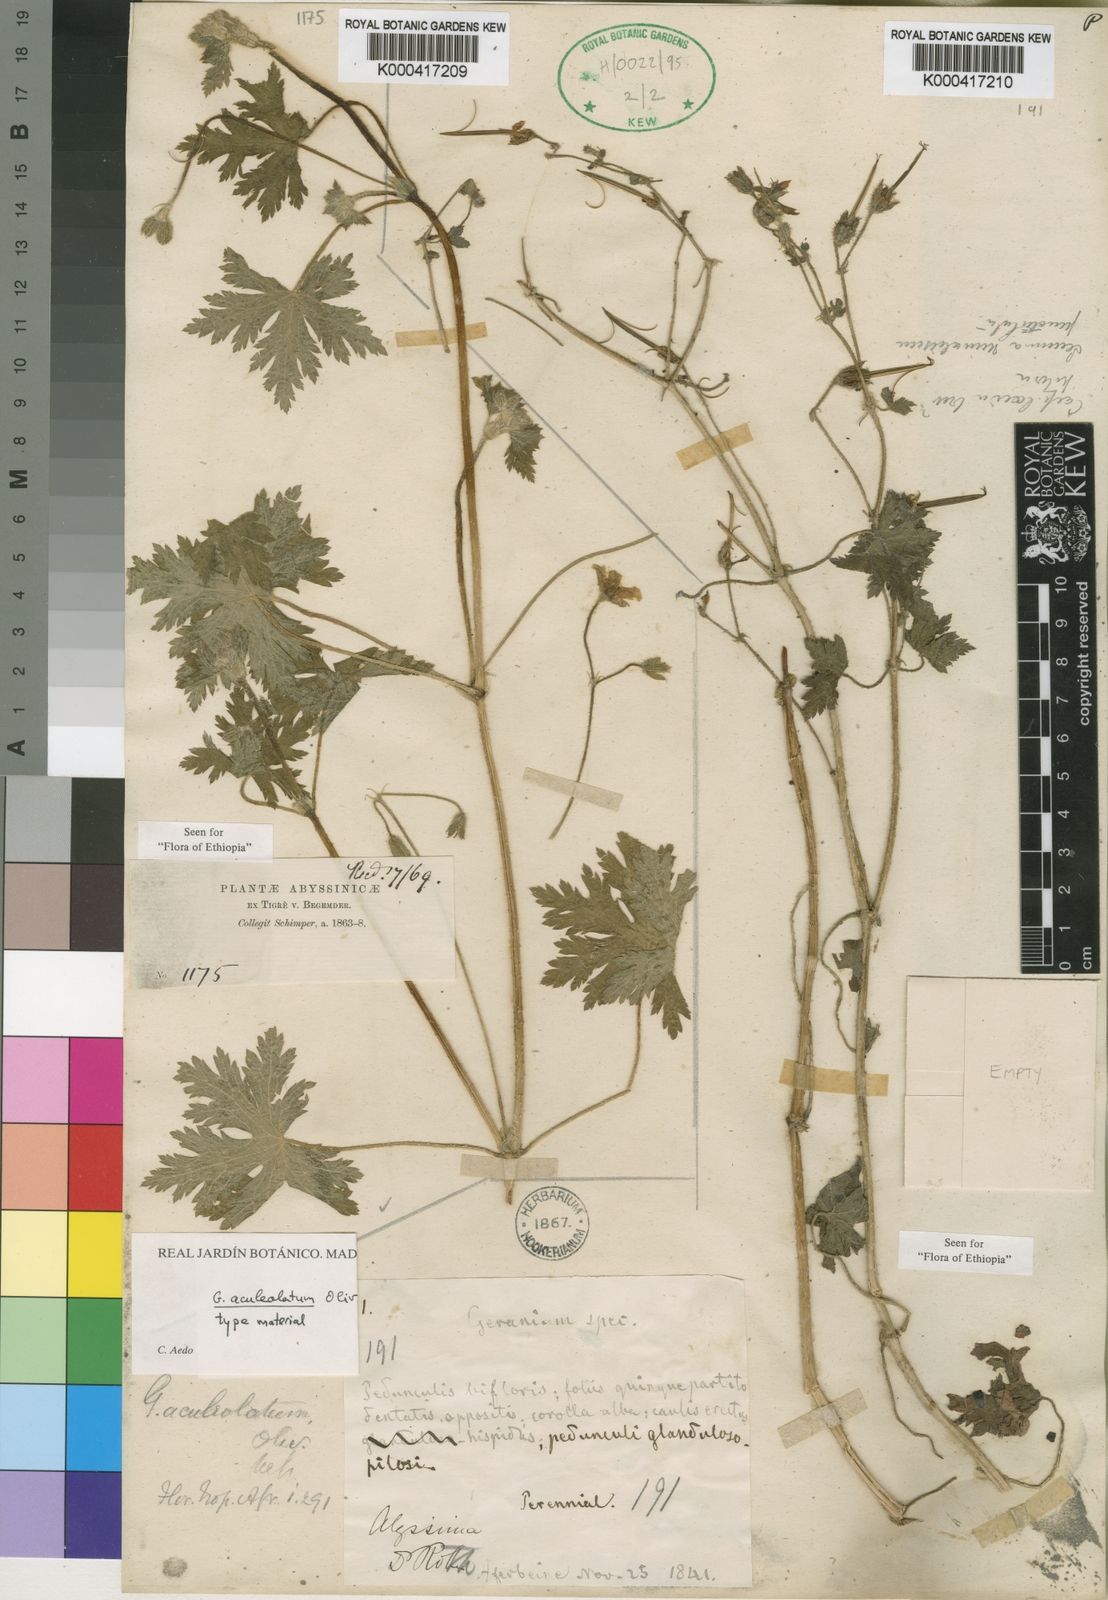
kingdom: Plantae
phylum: Tracheophyta
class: Magnoliopsida
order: Geraniales
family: Geraniaceae
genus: Geranium
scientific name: Geranium aculeolatum
